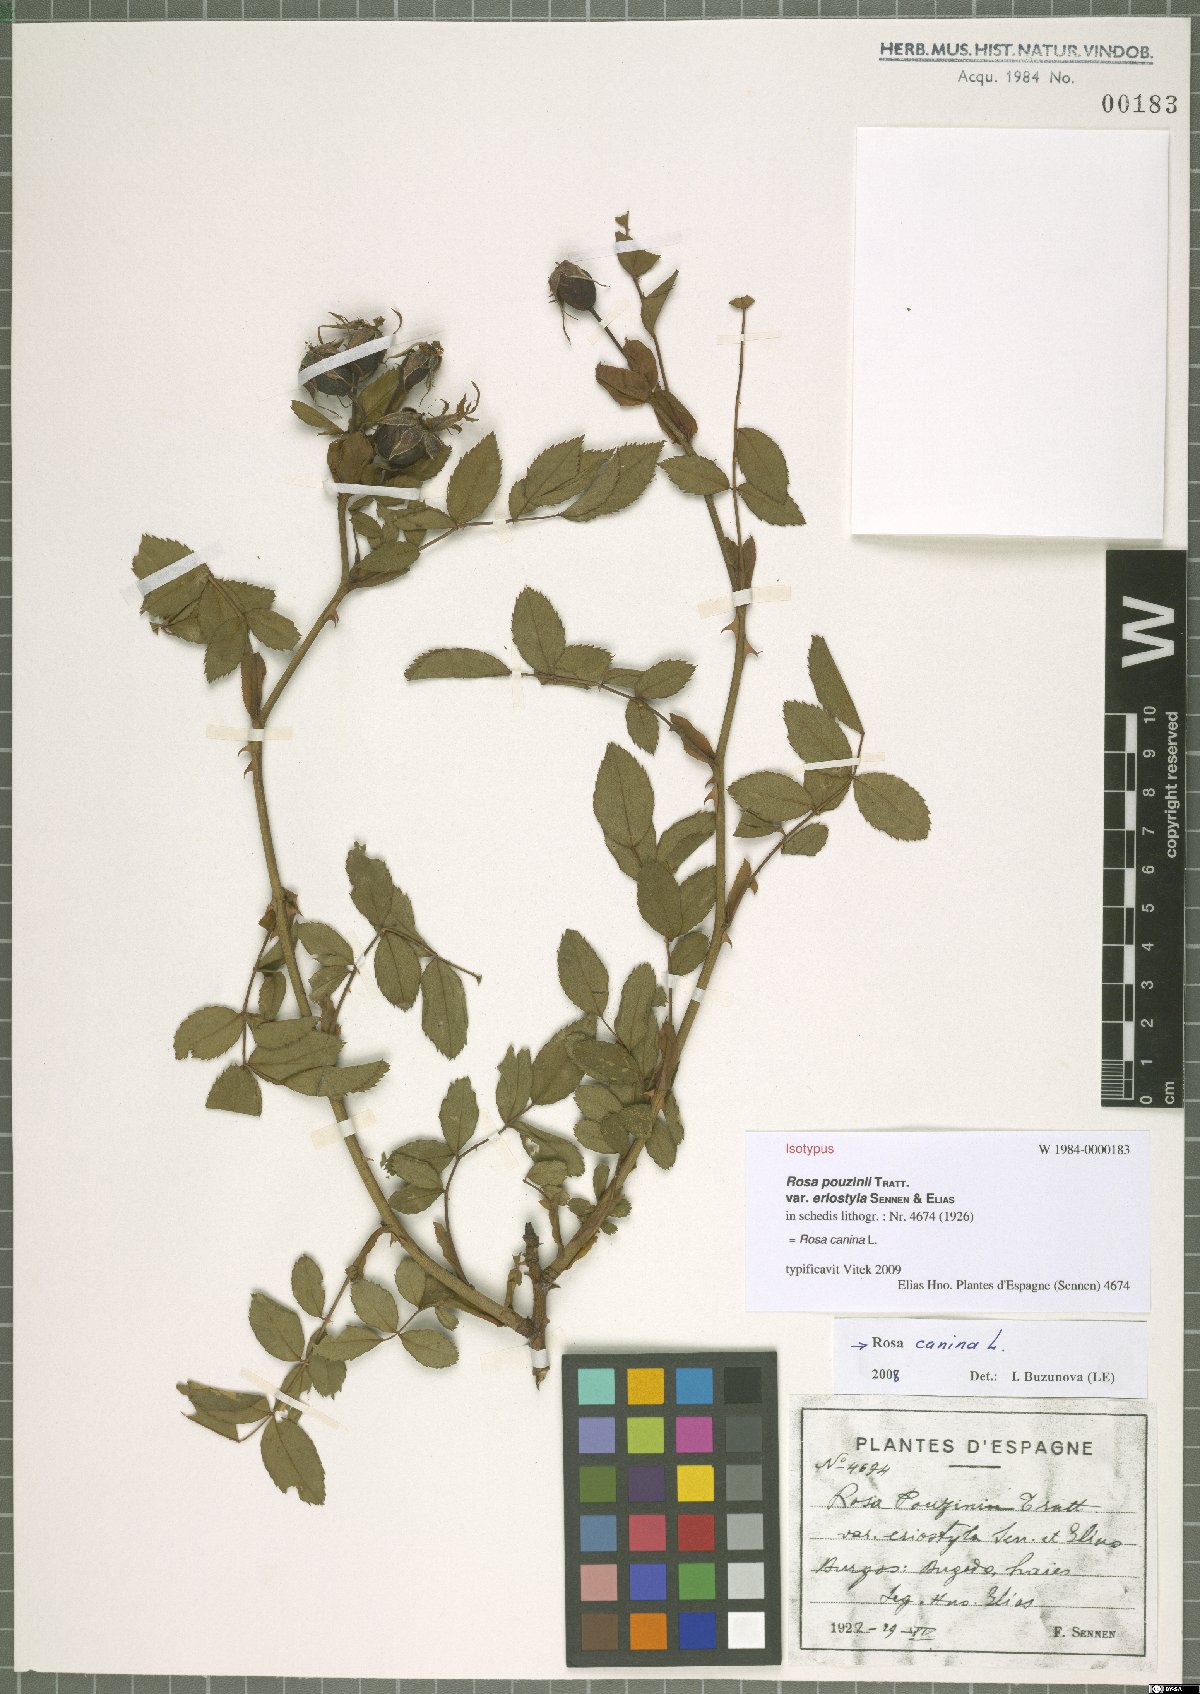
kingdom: Plantae
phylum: Tracheophyta
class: Magnoliopsida
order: Rosales
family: Rosaceae
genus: Rosa
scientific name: Rosa canina
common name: Dog rose
